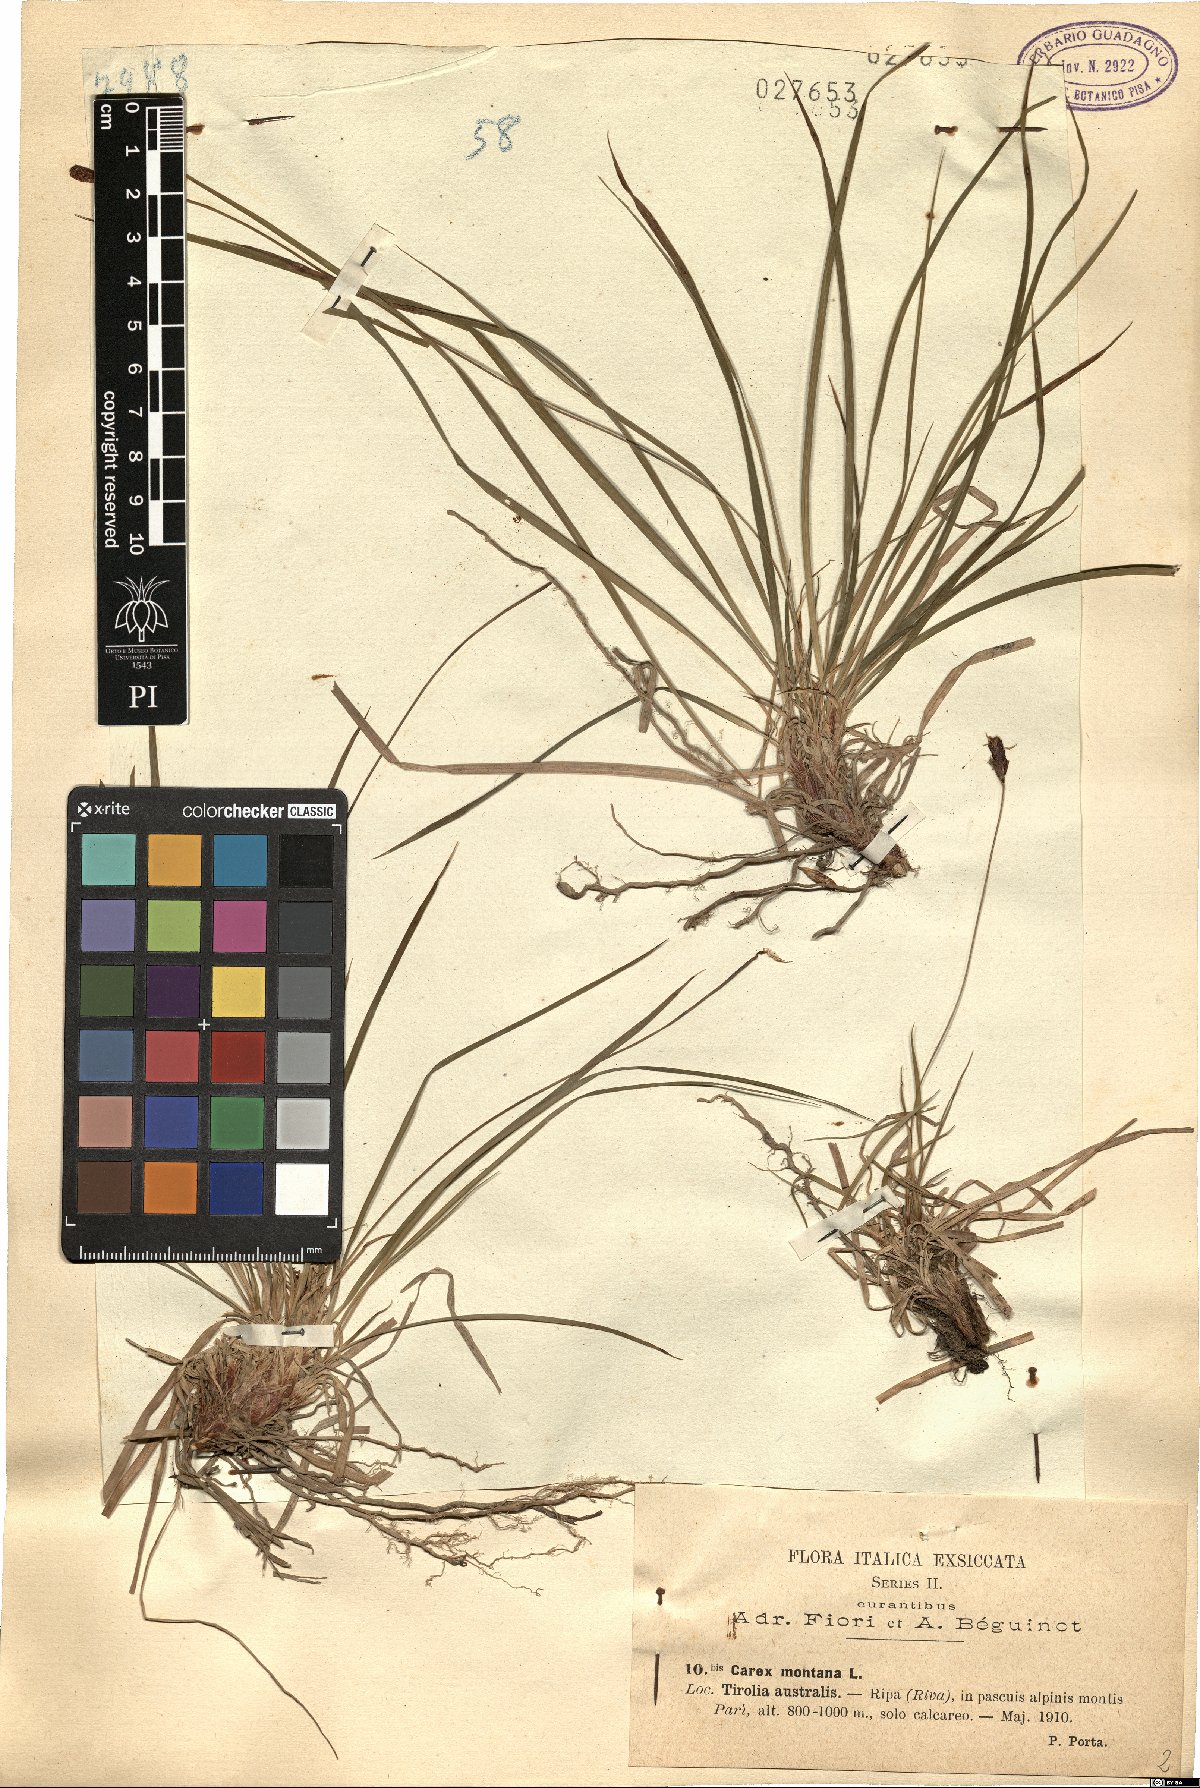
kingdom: Plantae
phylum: Tracheophyta
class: Liliopsida
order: Poales
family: Cyperaceae
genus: Carex
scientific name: Carex montana
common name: Soft-leaved sedge
